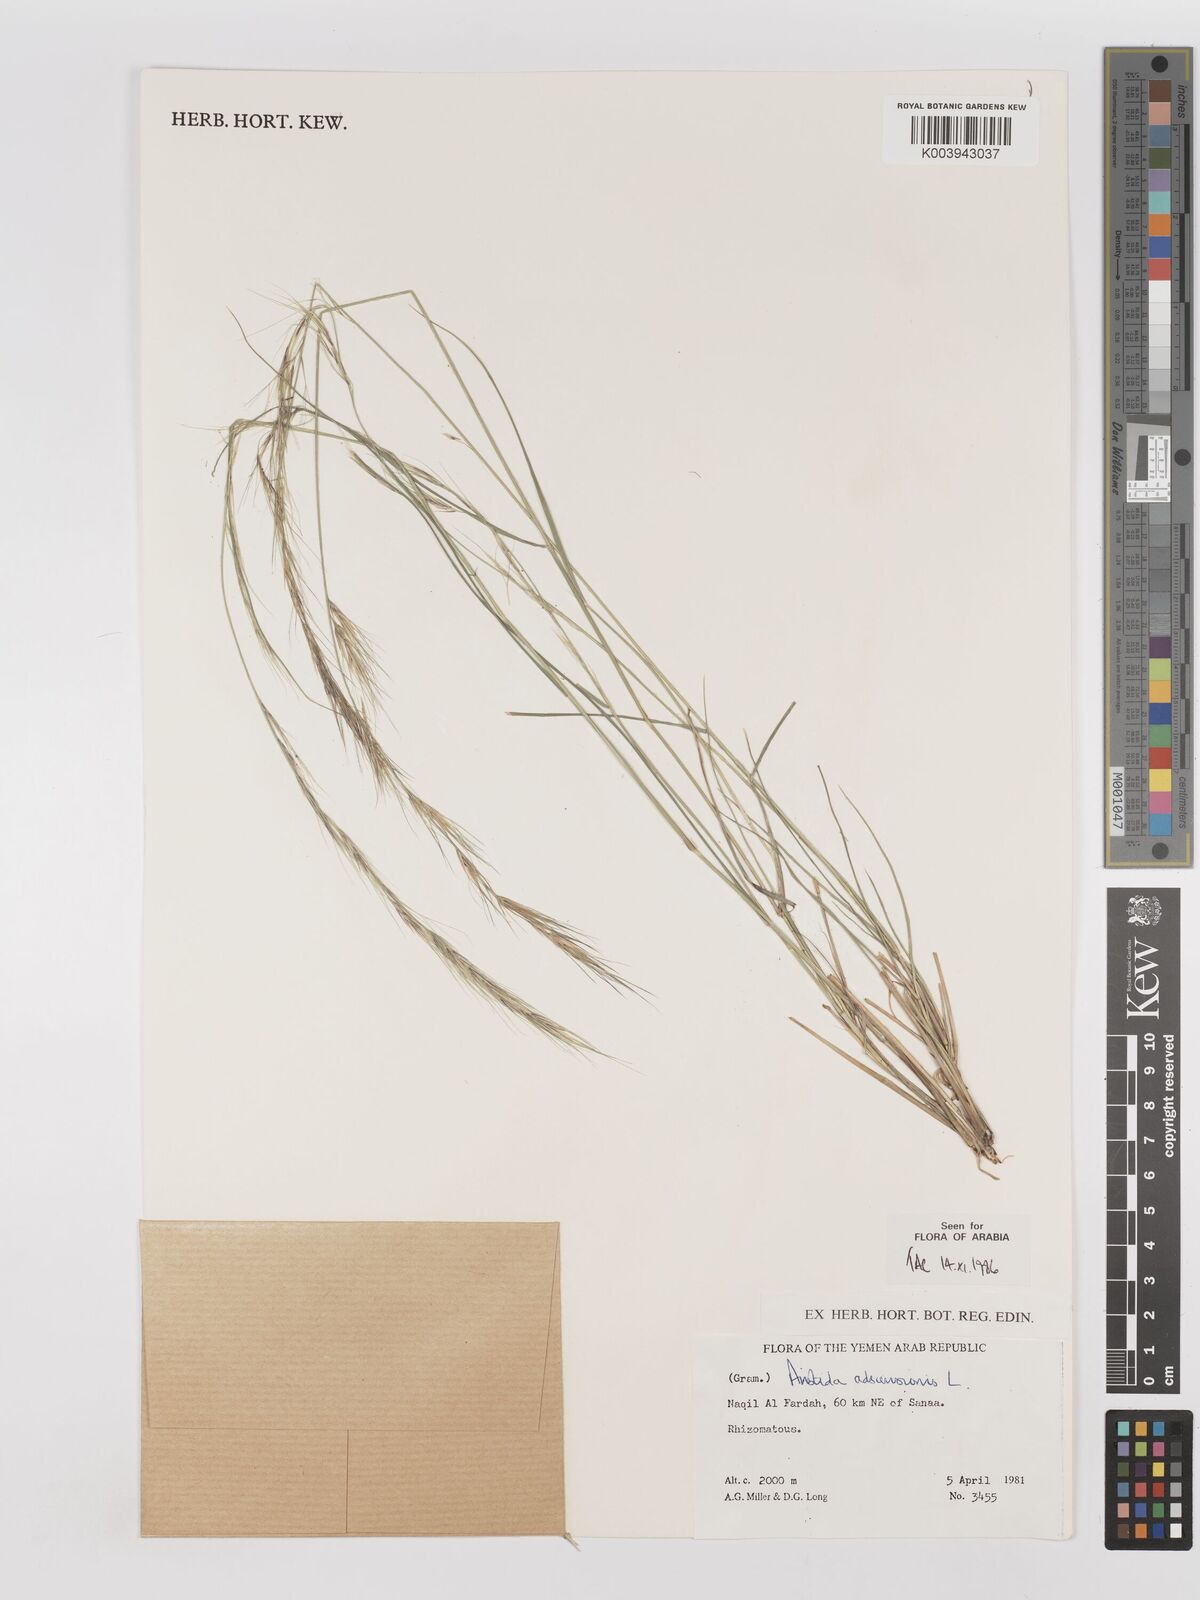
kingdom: Plantae
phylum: Tracheophyta
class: Liliopsida
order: Poales
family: Poaceae
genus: Aristida
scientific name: Aristida adscensionis
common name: Sixweeks threeawn
